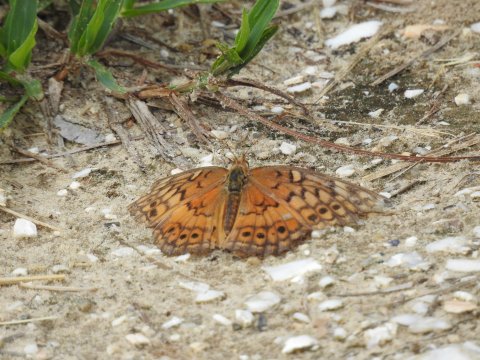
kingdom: Animalia
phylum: Arthropoda
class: Insecta
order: Lepidoptera
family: Nymphalidae
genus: Euptoieta
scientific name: Euptoieta claudia
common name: Variegated Fritillary
